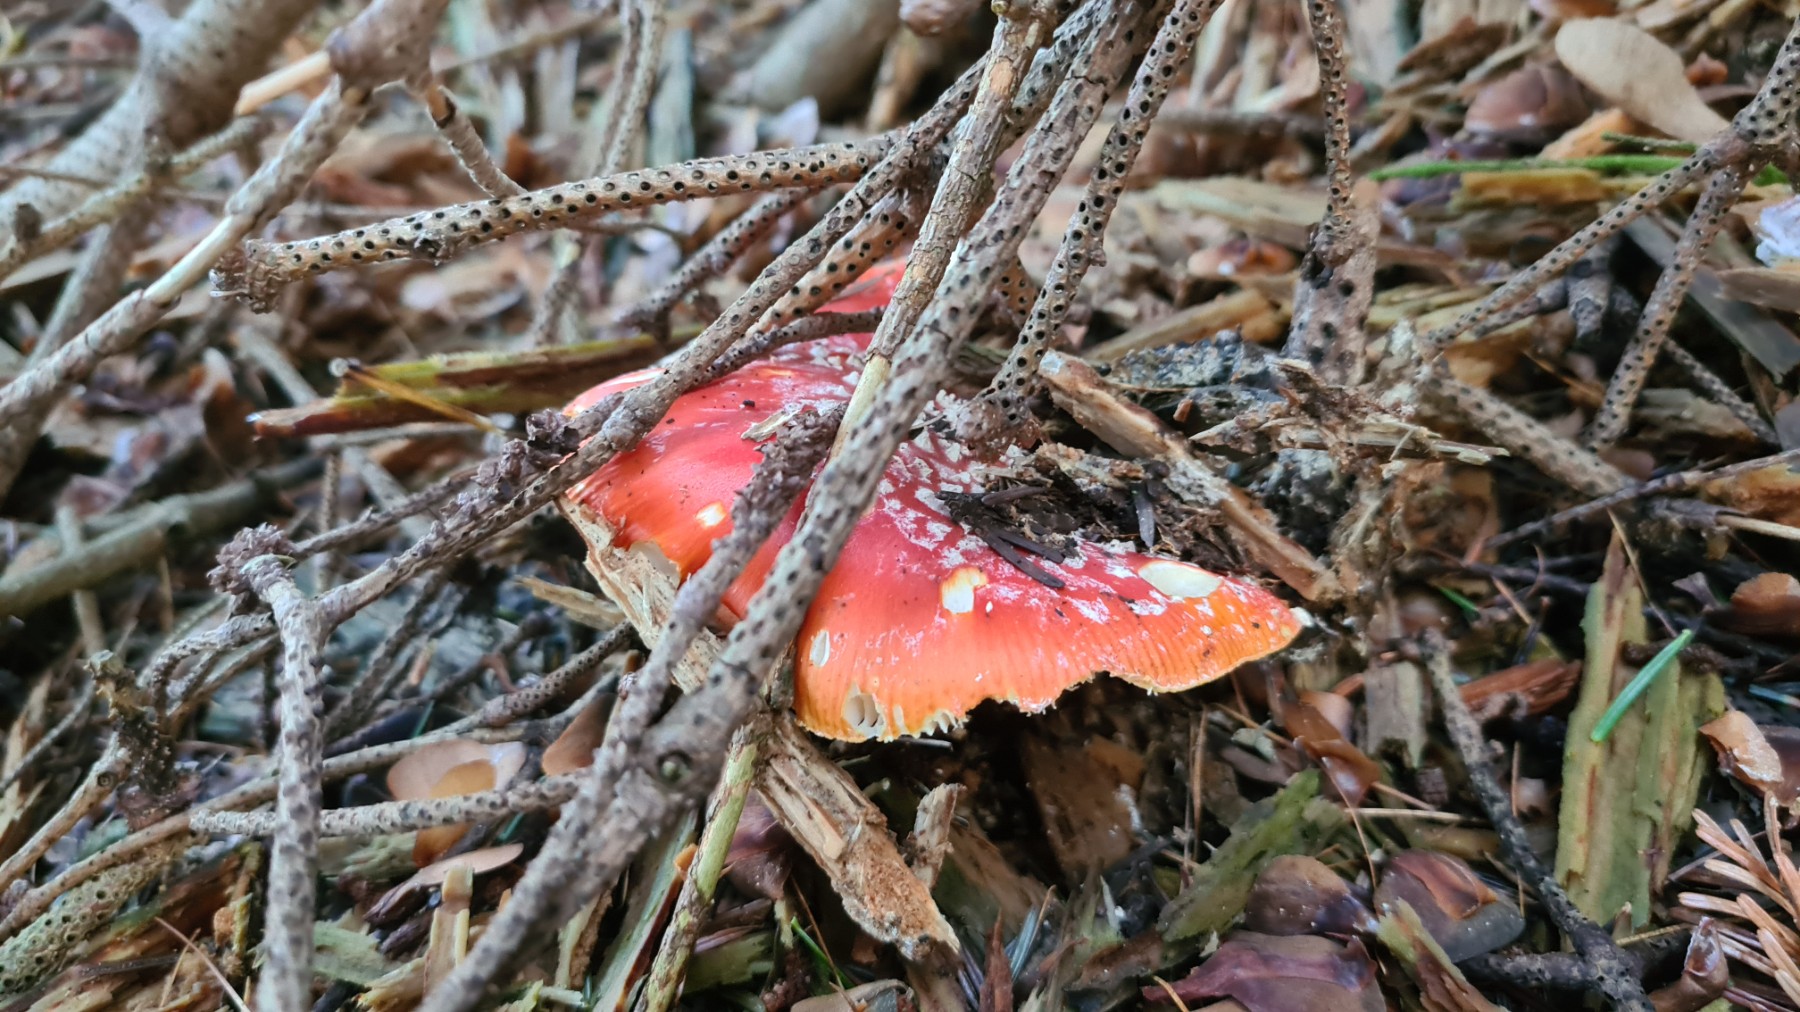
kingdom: Fungi
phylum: Basidiomycota
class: Agaricomycetes
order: Agaricales
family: Amanitaceae
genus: Amanita
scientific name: Amanita muscaria
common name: rød fluesvamp
